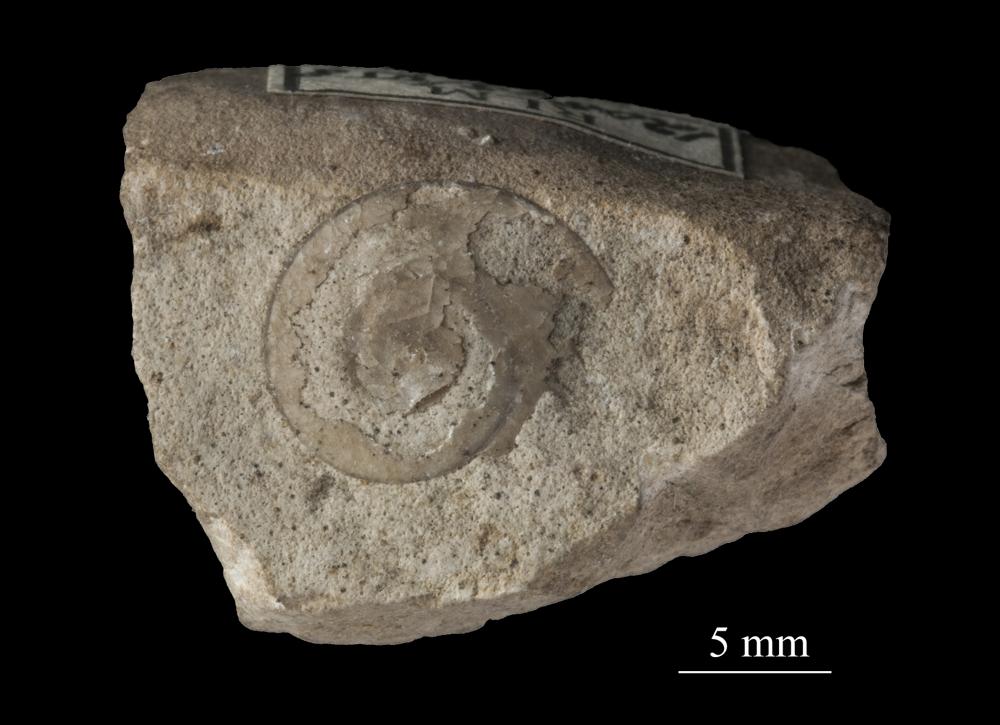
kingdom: Animalia
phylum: Mollusca
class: Gastropoda
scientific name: Gastropoda
